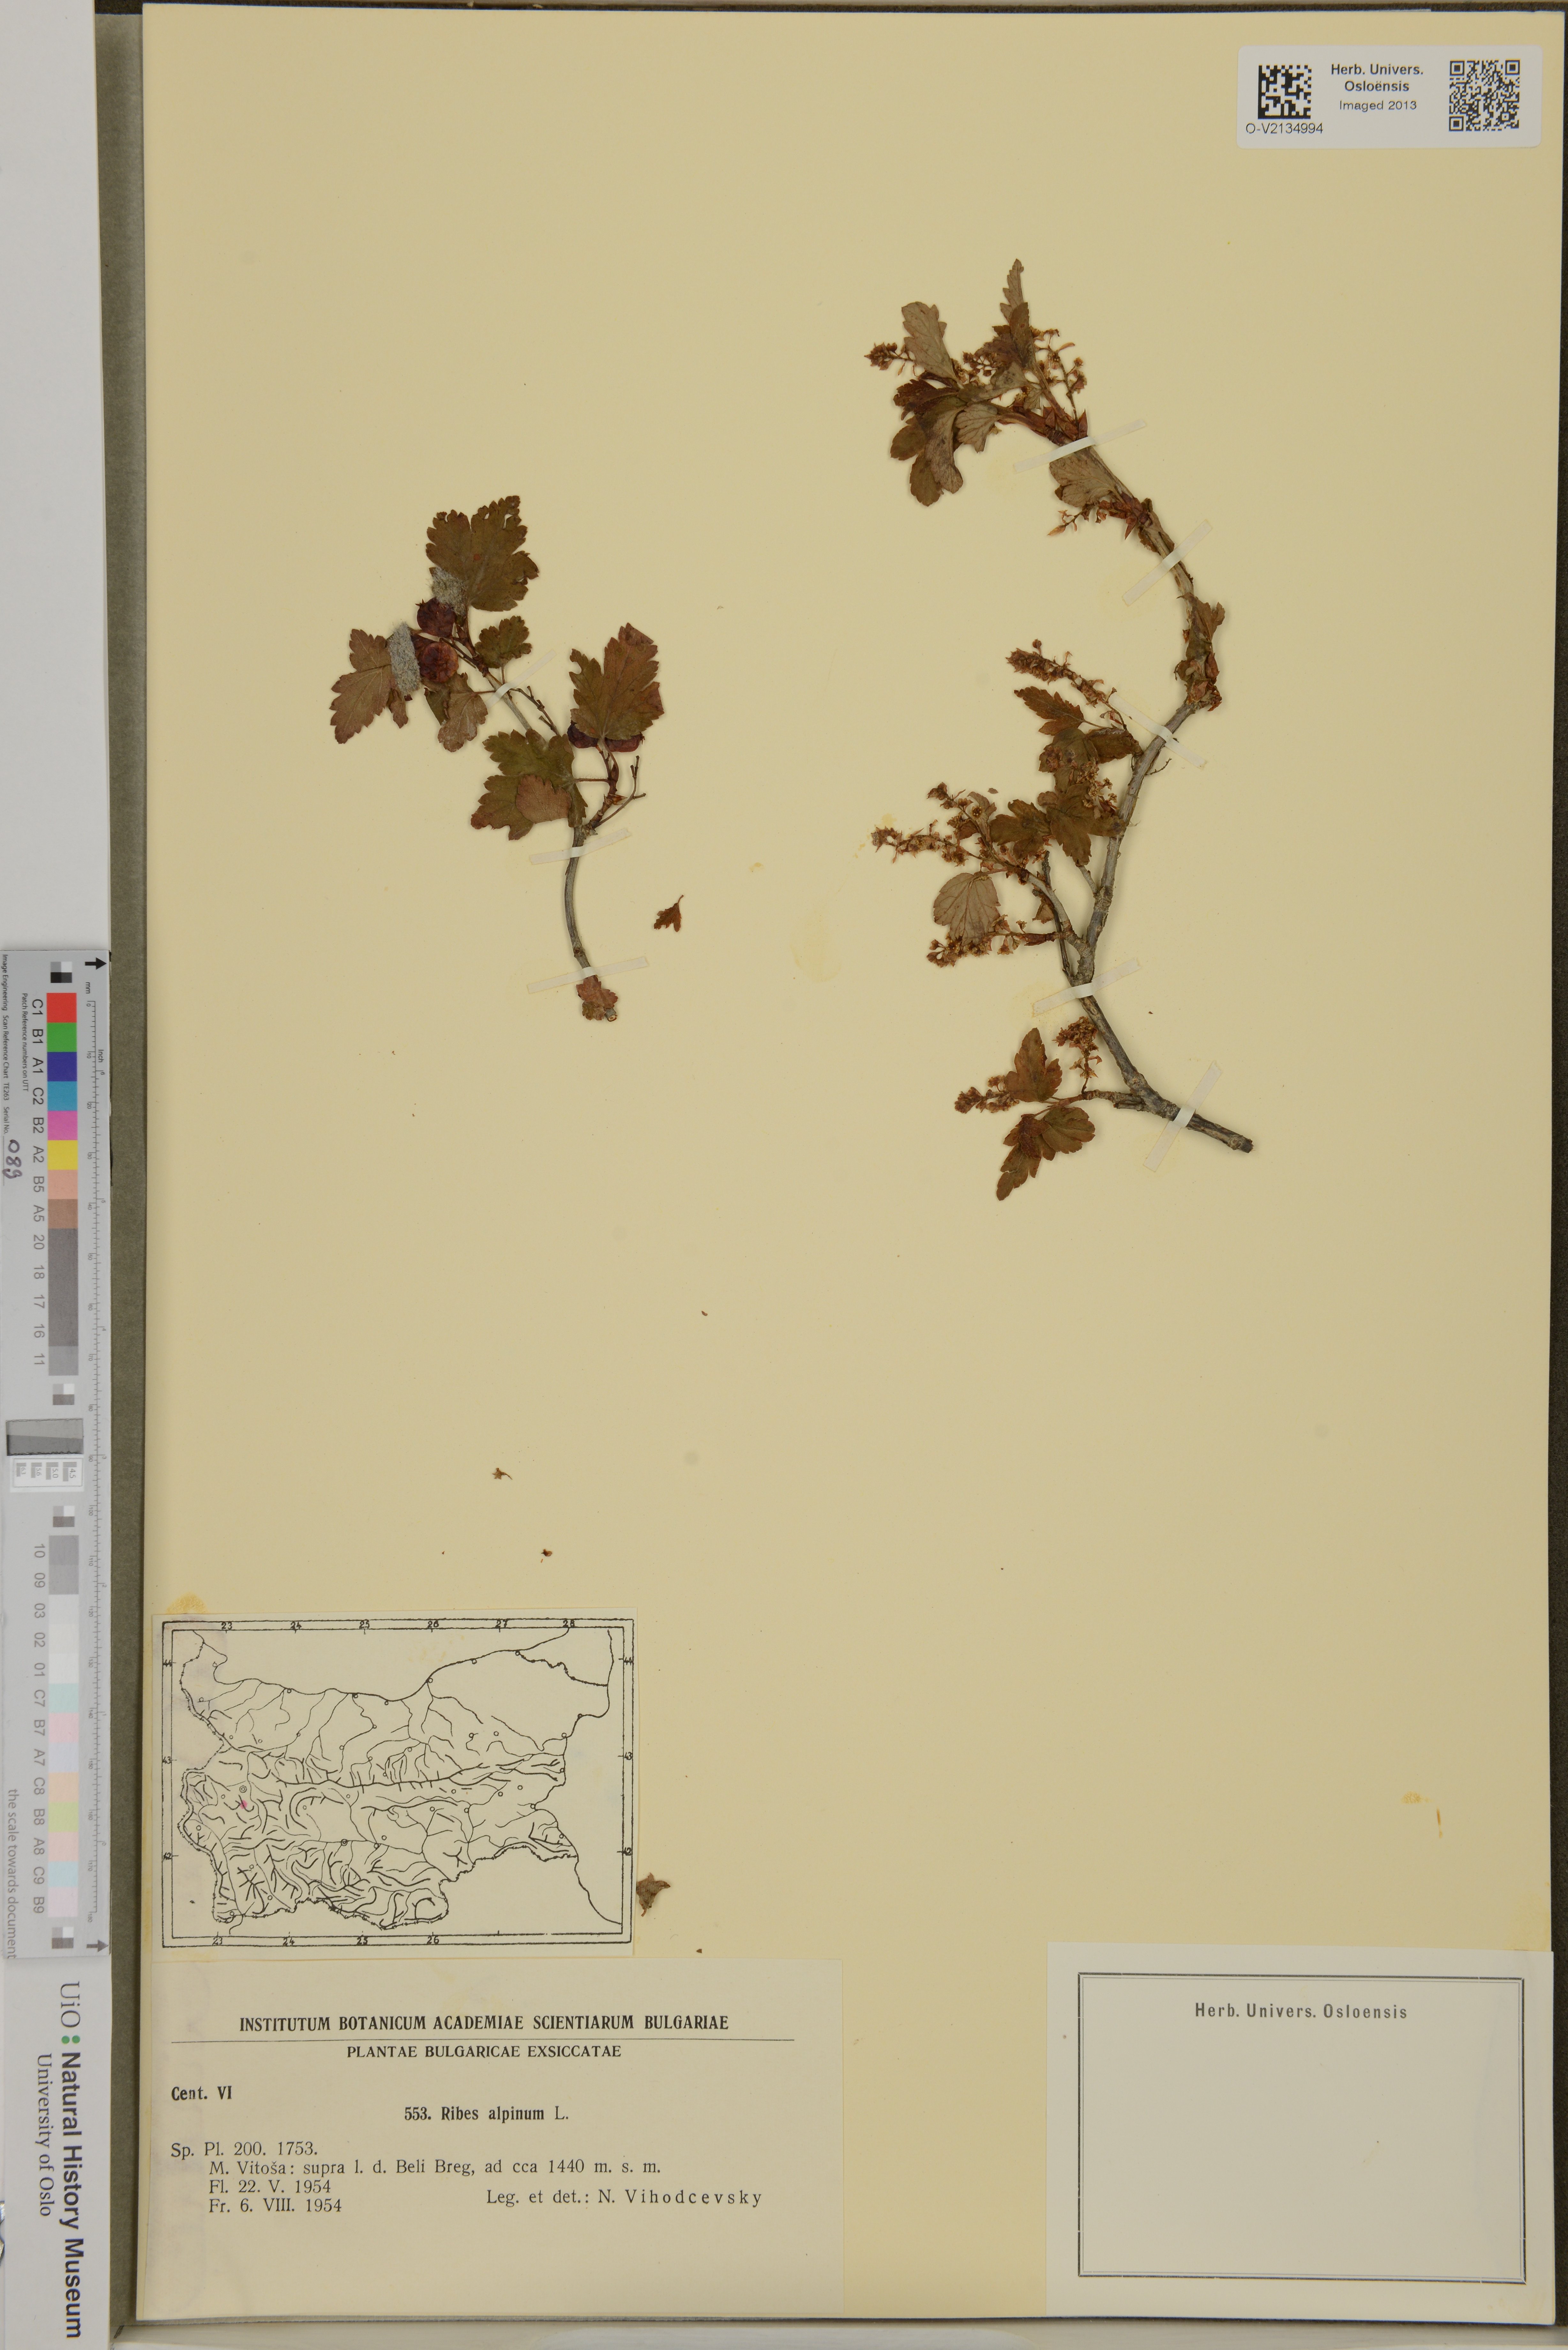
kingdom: Plantae
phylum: Tracheophyta
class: Magnoliopsida
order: Saxifragales
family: Grossulariaceae
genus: Ribes
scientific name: Ribes alpinum
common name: Alpine currant
